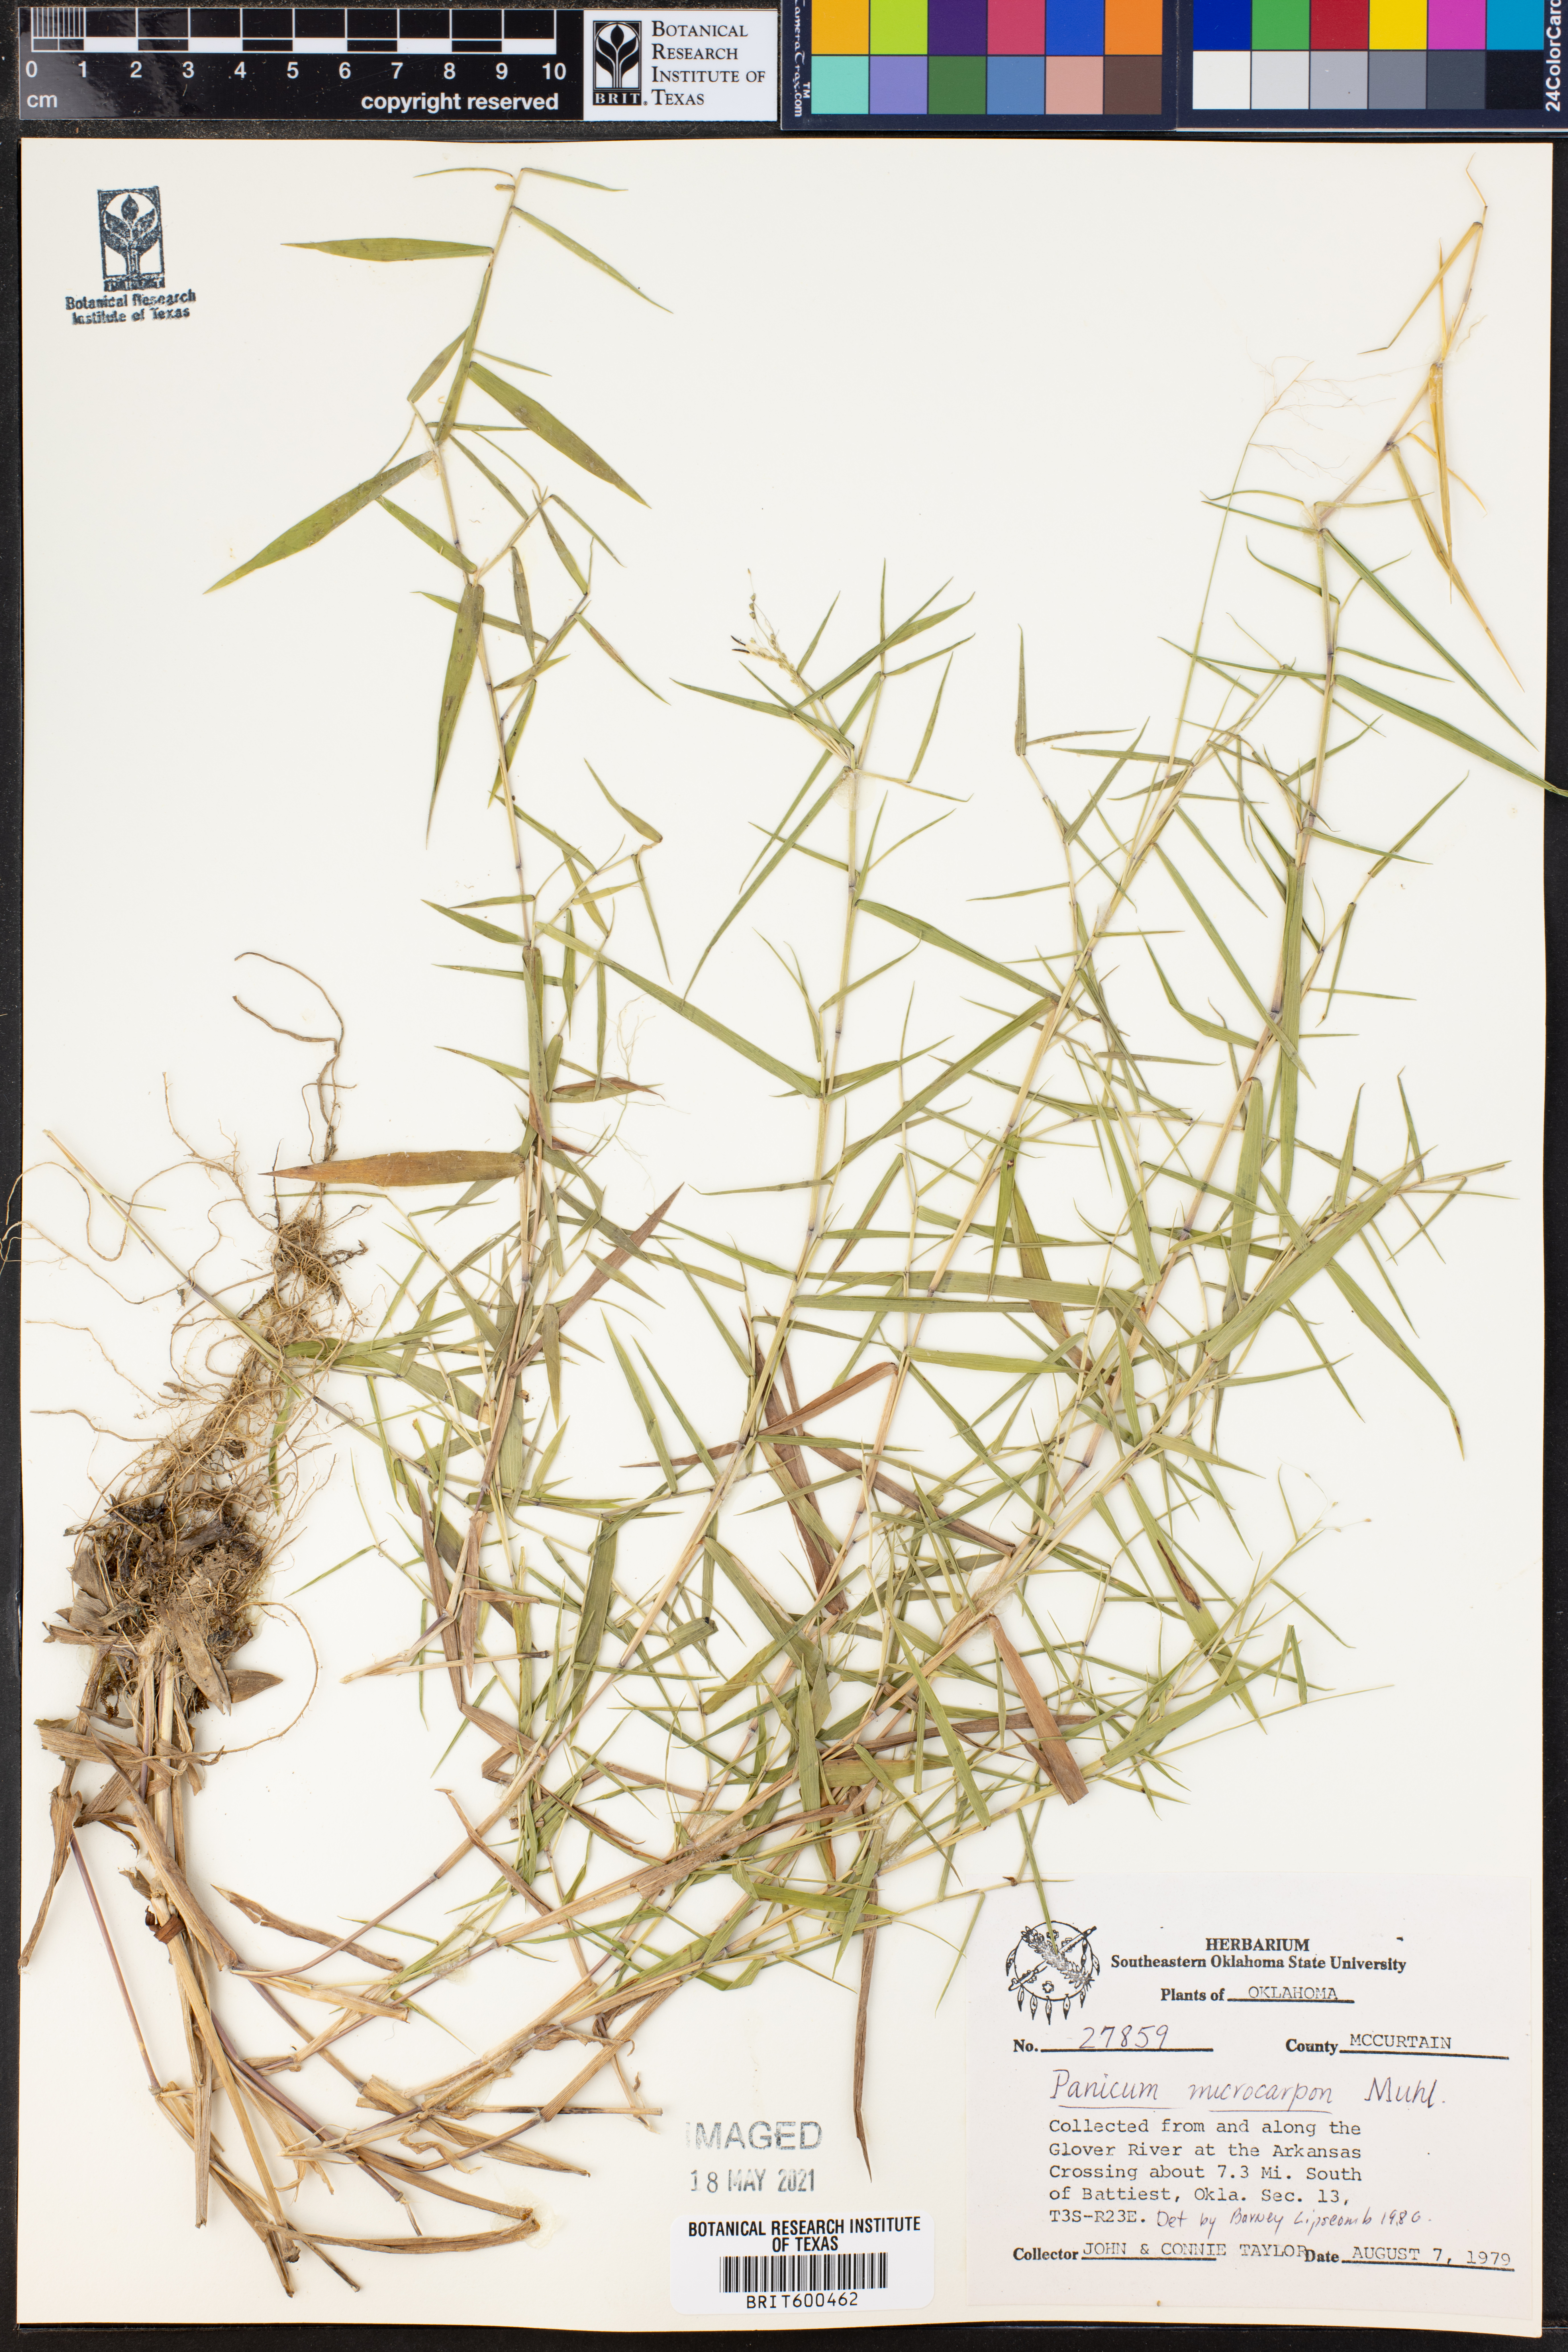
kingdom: Plantae
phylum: Tracheophyta
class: Liliopsida
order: Poales
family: Poaceae
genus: Dichanthelium
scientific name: Dichanthelium polyanthes
